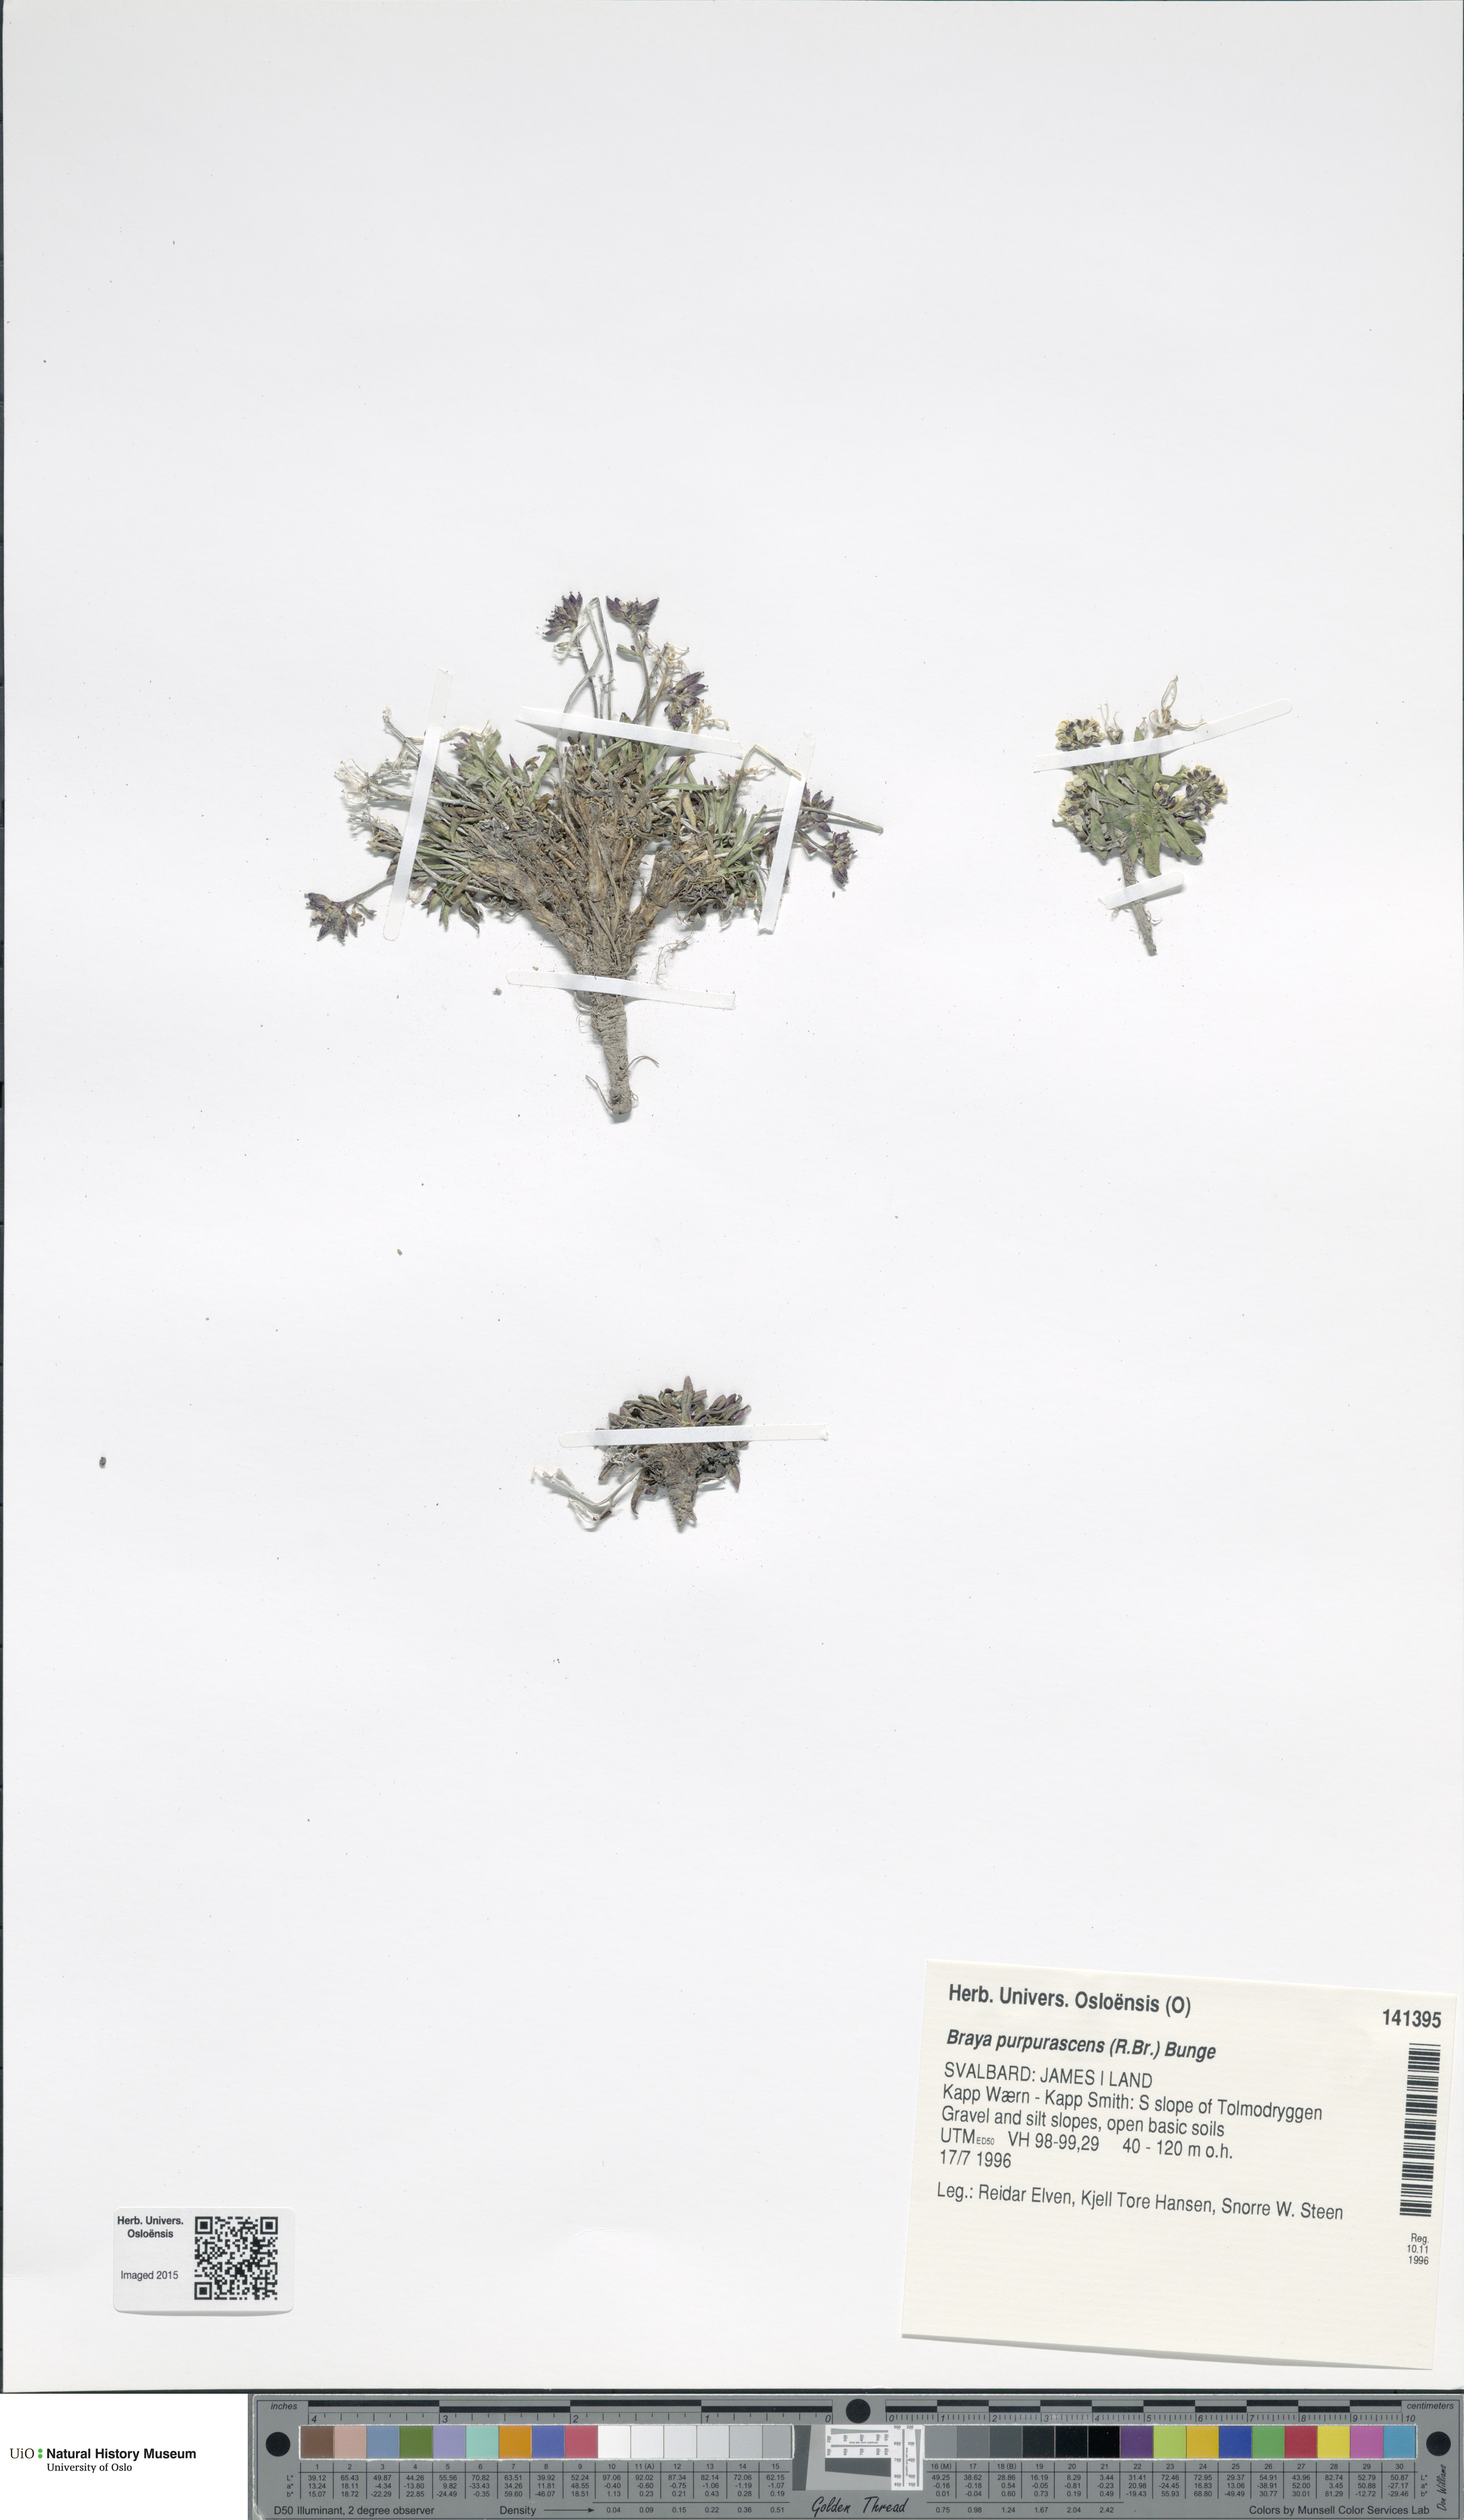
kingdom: Plantae
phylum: Tracheophyta
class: Magnoliopsida
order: Brassicales
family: Brassicaceae
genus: Braya
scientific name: Braya purpurascens
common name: Alpine braya
